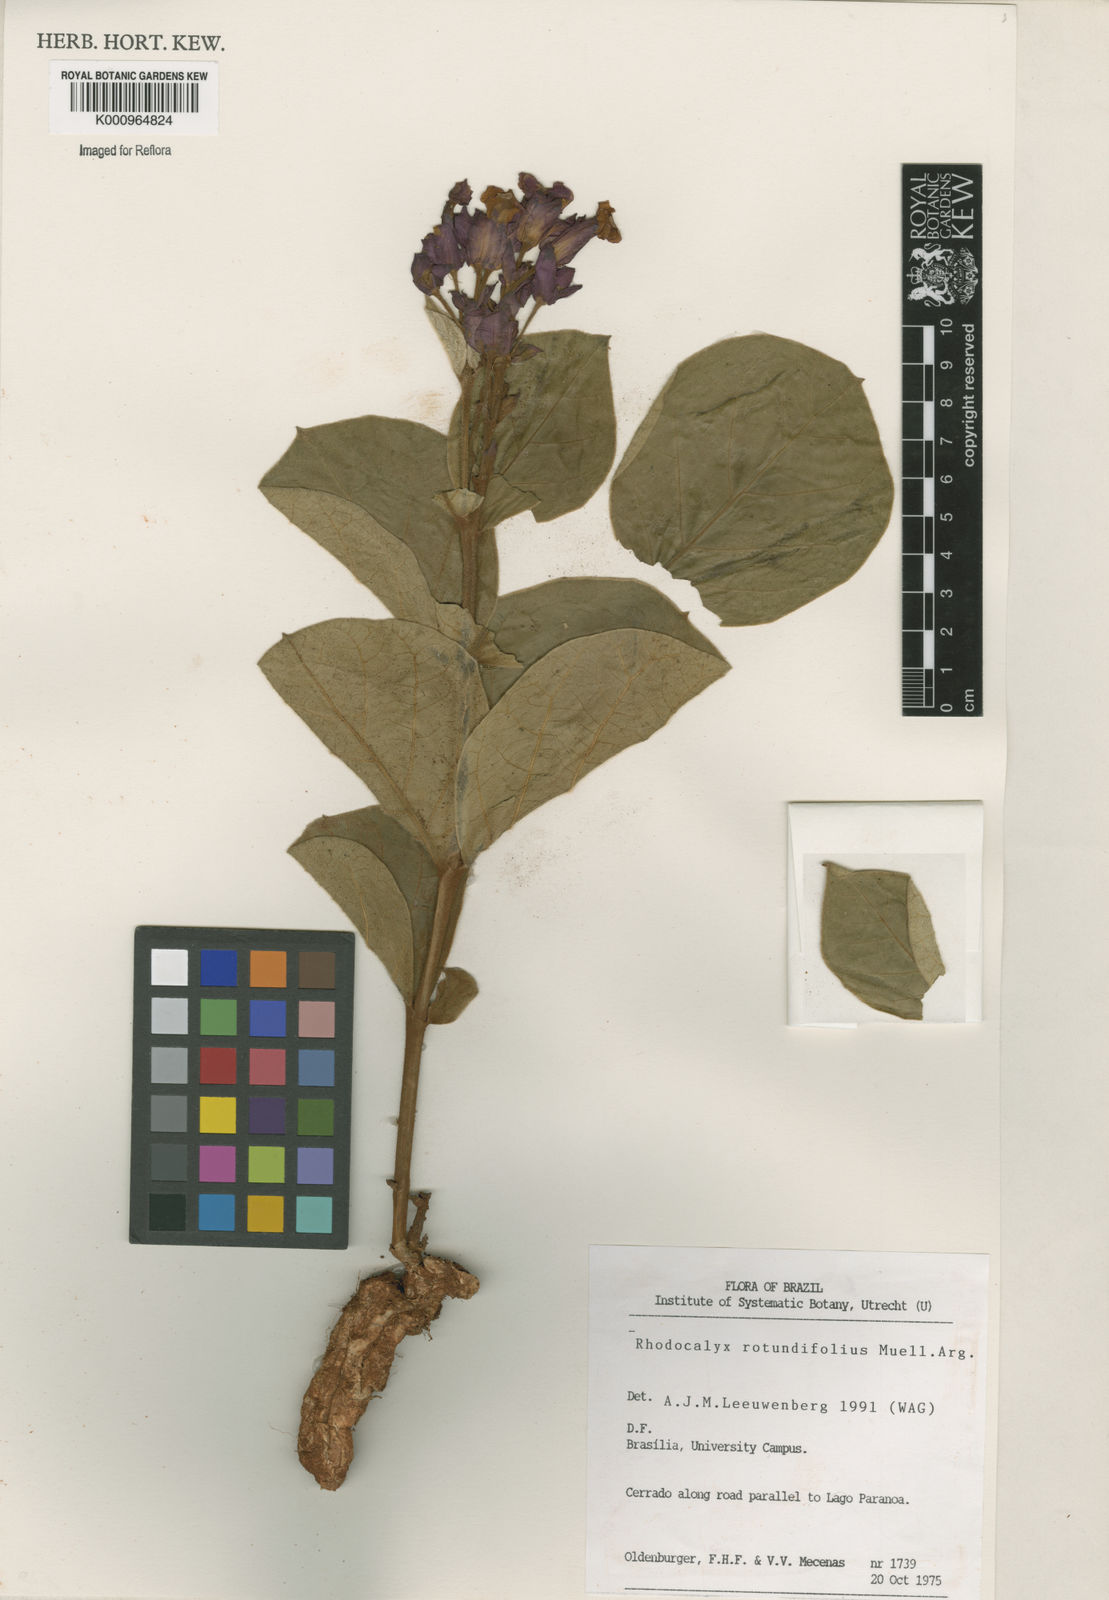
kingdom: Plantae
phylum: Tracheophyta
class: Magnoliopsida
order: Gentianales
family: Apocynaceae
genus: Rhodocalyx
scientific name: Rhodocalyx
